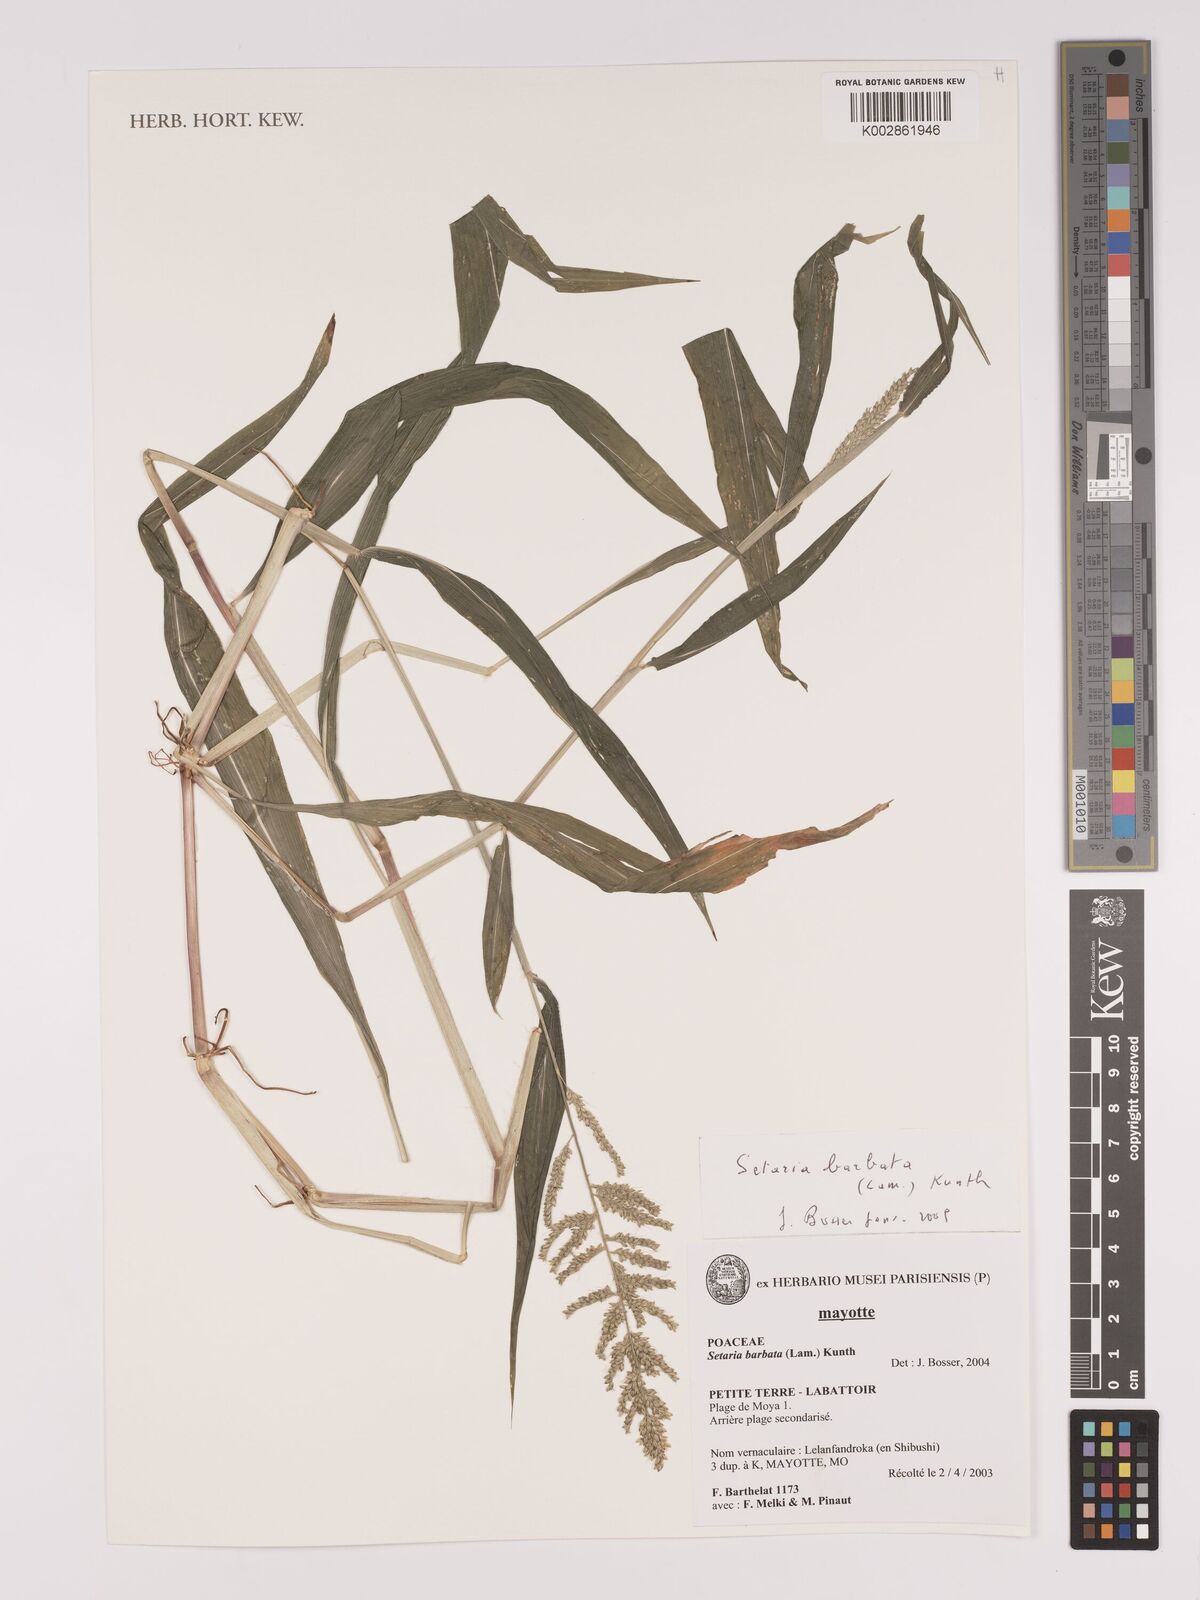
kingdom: Plantae
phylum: Tracheophyta
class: Liliopsida
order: Poales
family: Poaceae
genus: Setaria
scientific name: Setaria barbata
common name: East indian bristlegrass
